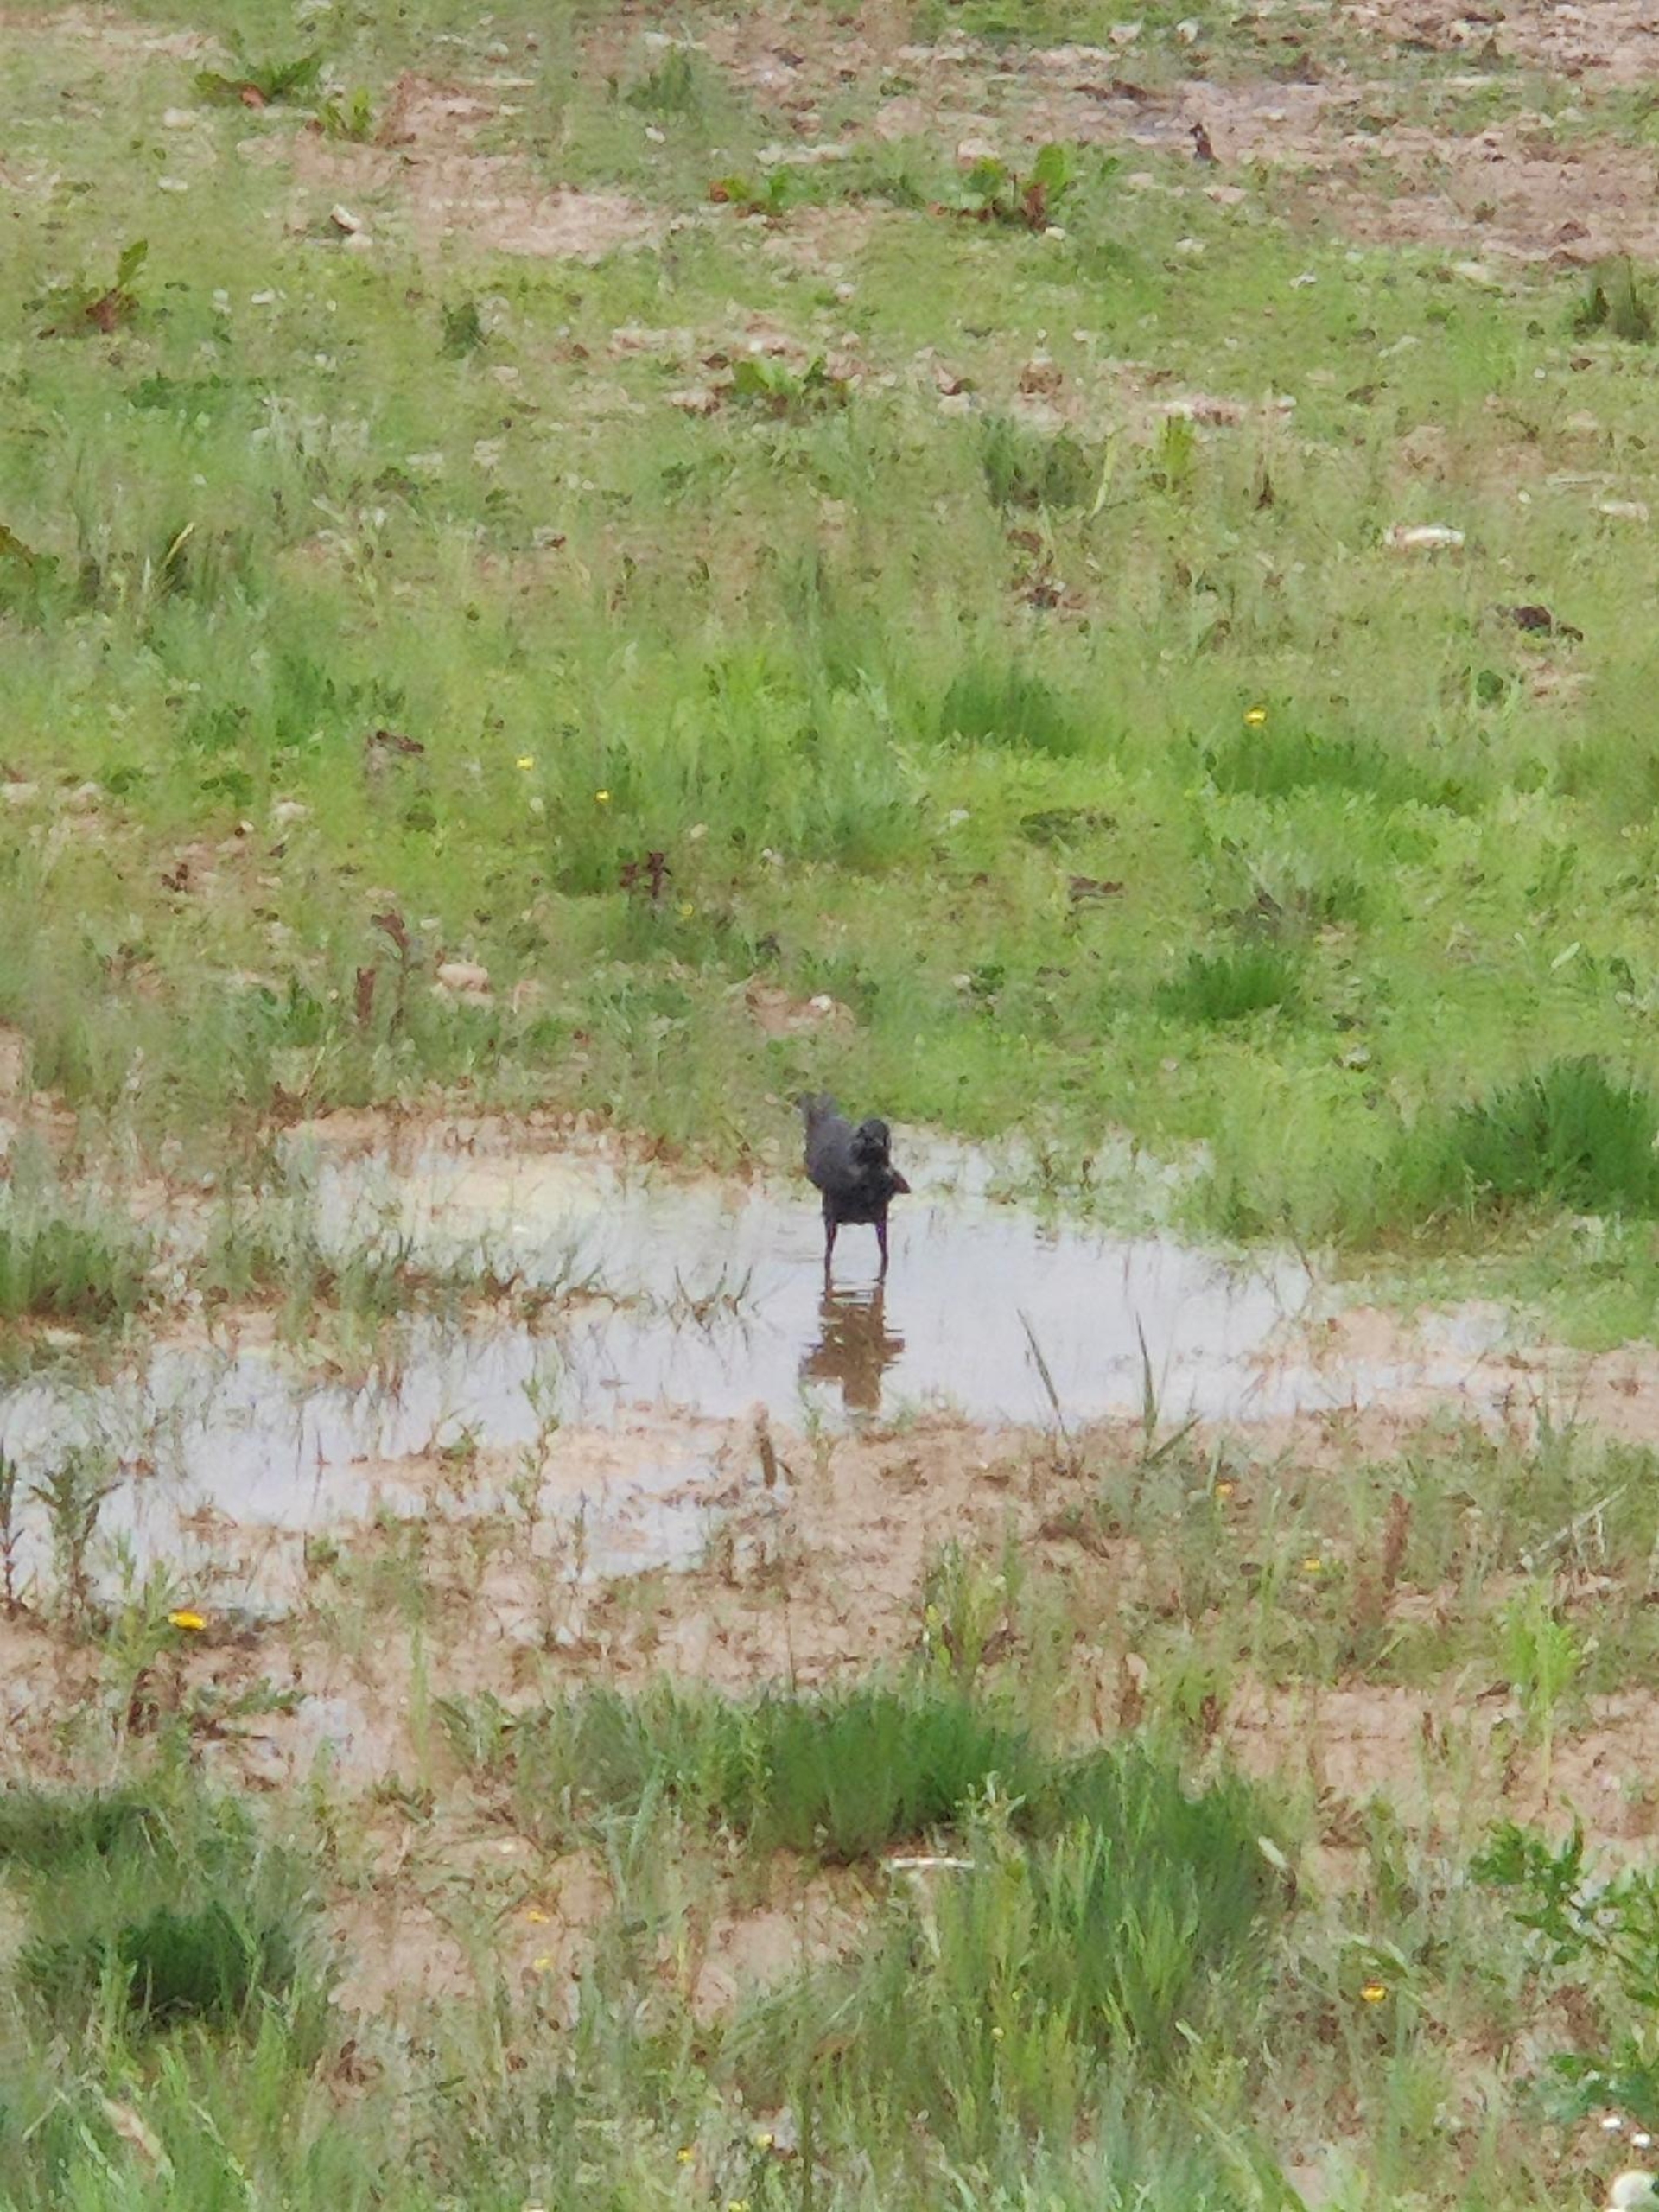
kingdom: Animalia
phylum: Chordata
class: Aves
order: Passeriformes
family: Corvidae
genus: Coloeus
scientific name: Coloeus monedula
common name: Allike
